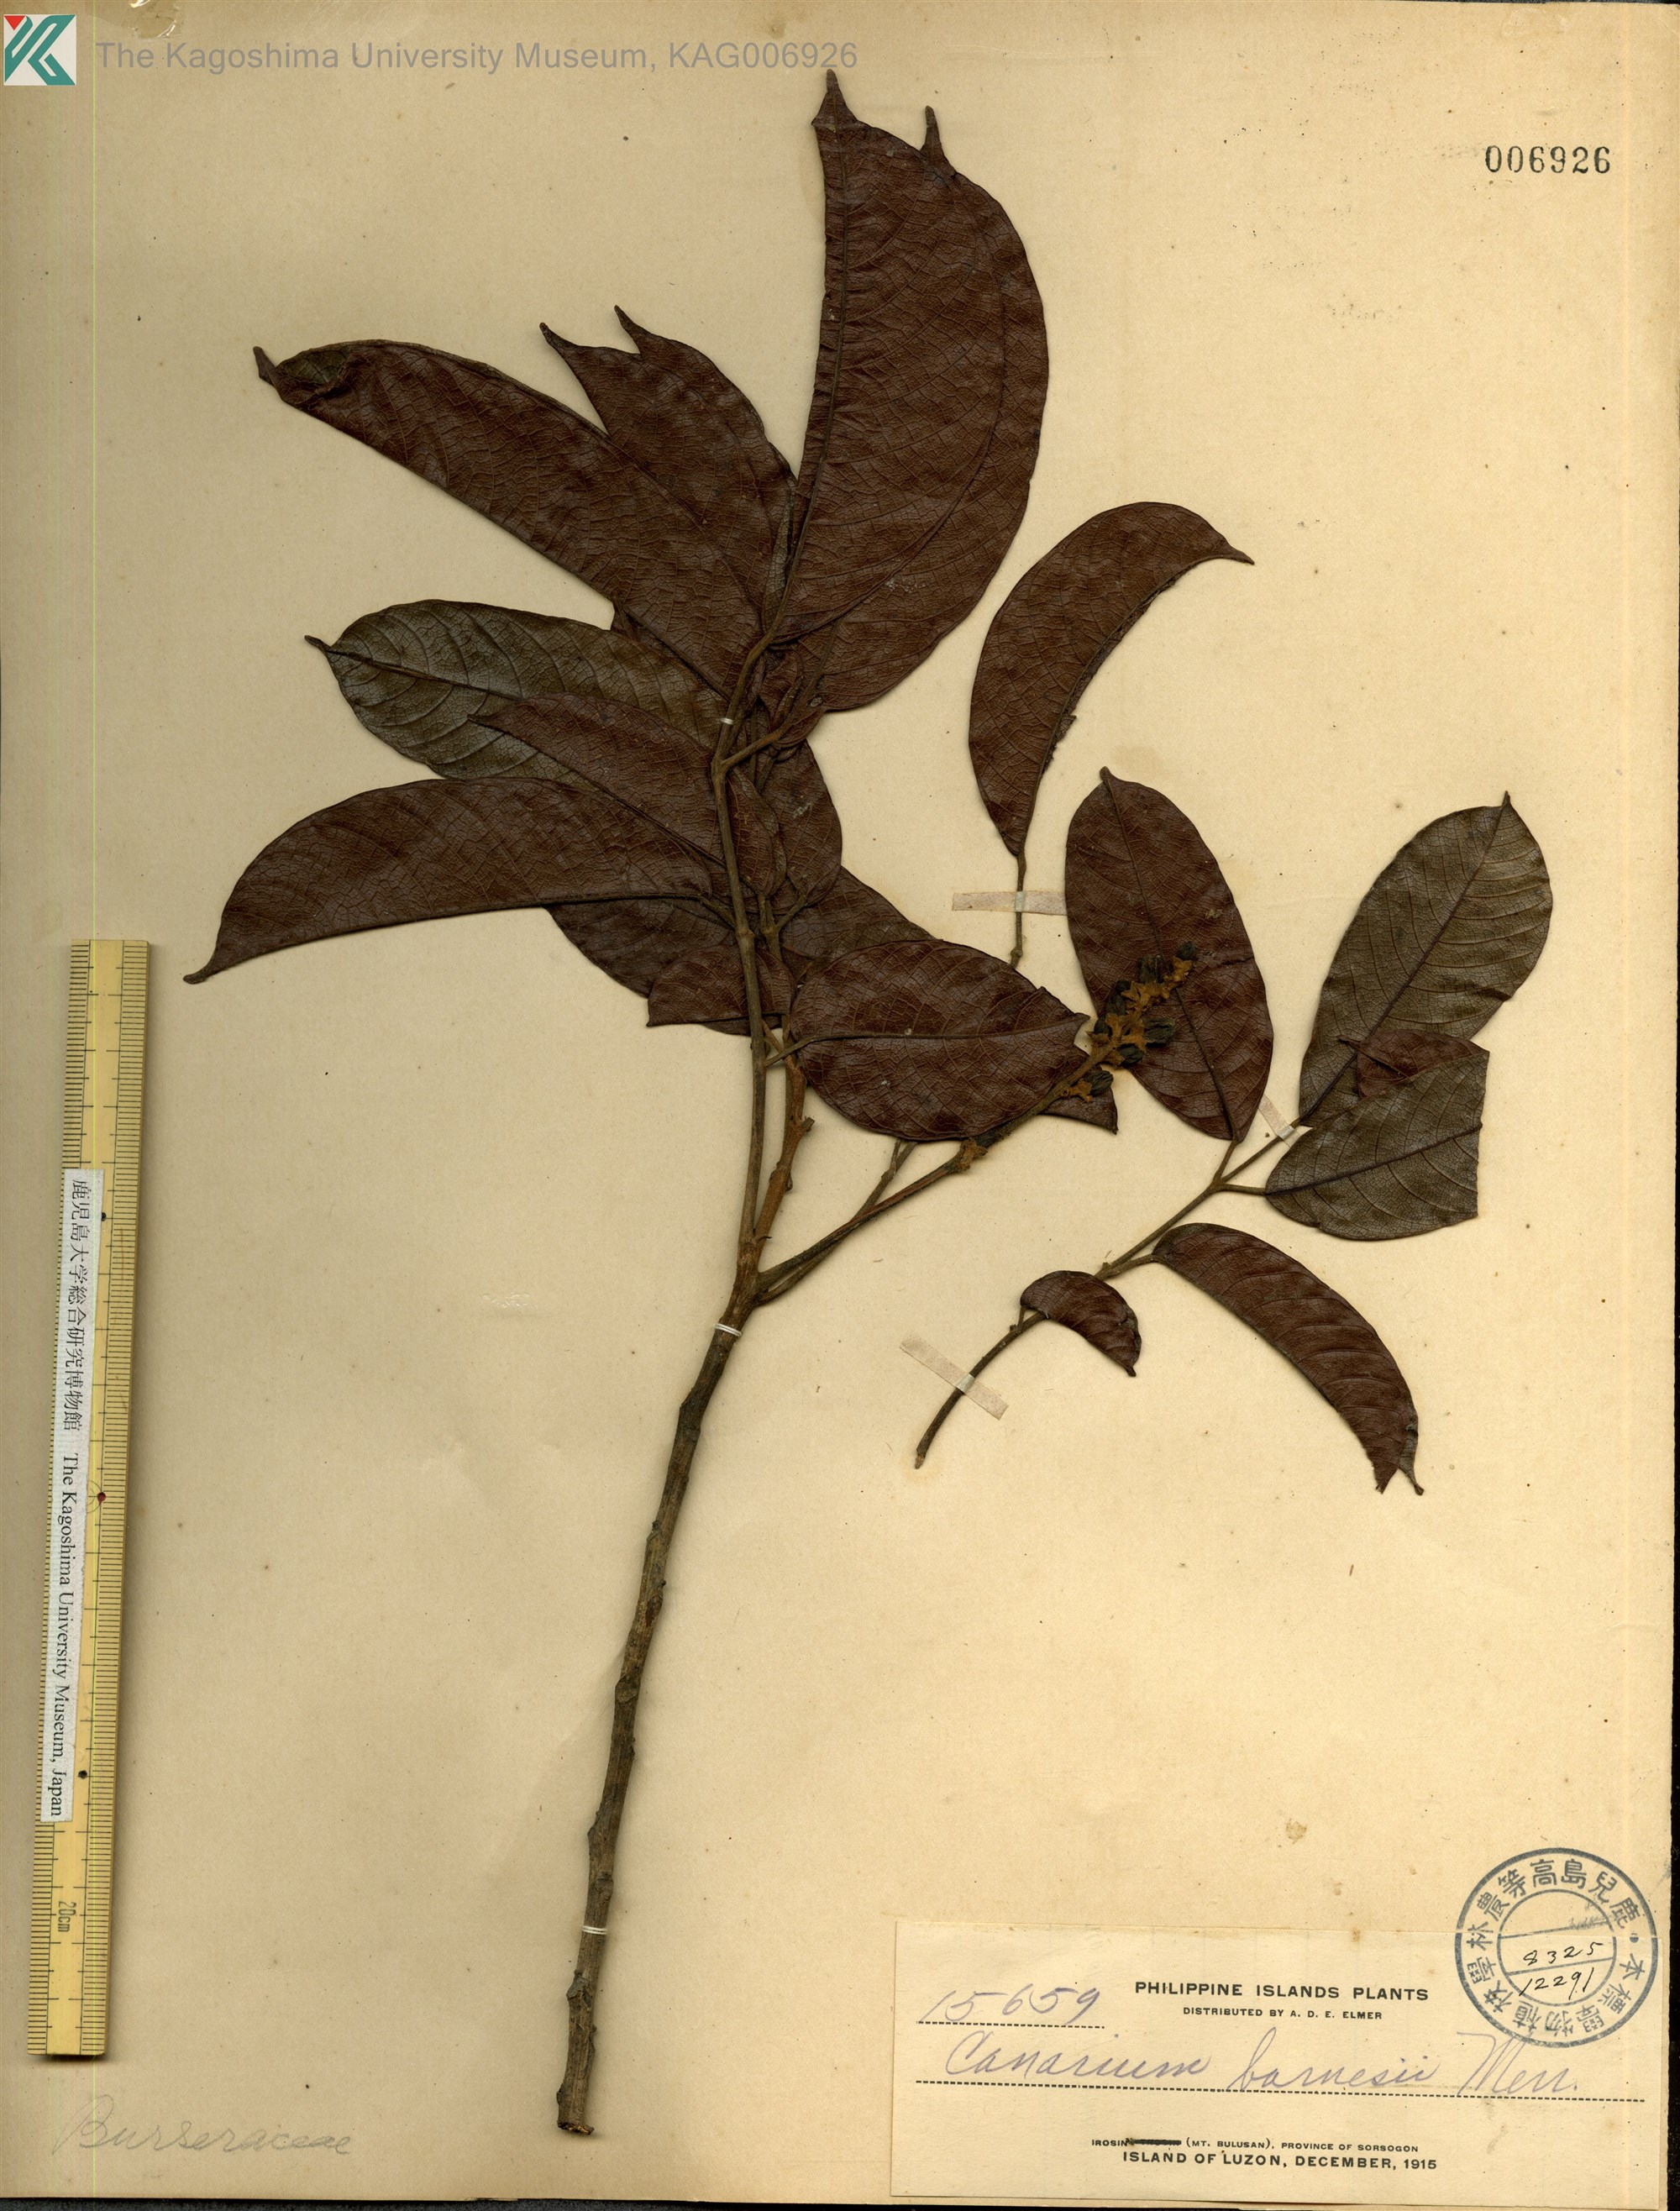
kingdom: Plantae
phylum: Tracheophyta
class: Magnoliopsida
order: Sapindales
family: Burseraceae
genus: Canarium
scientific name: Canarium asperum
